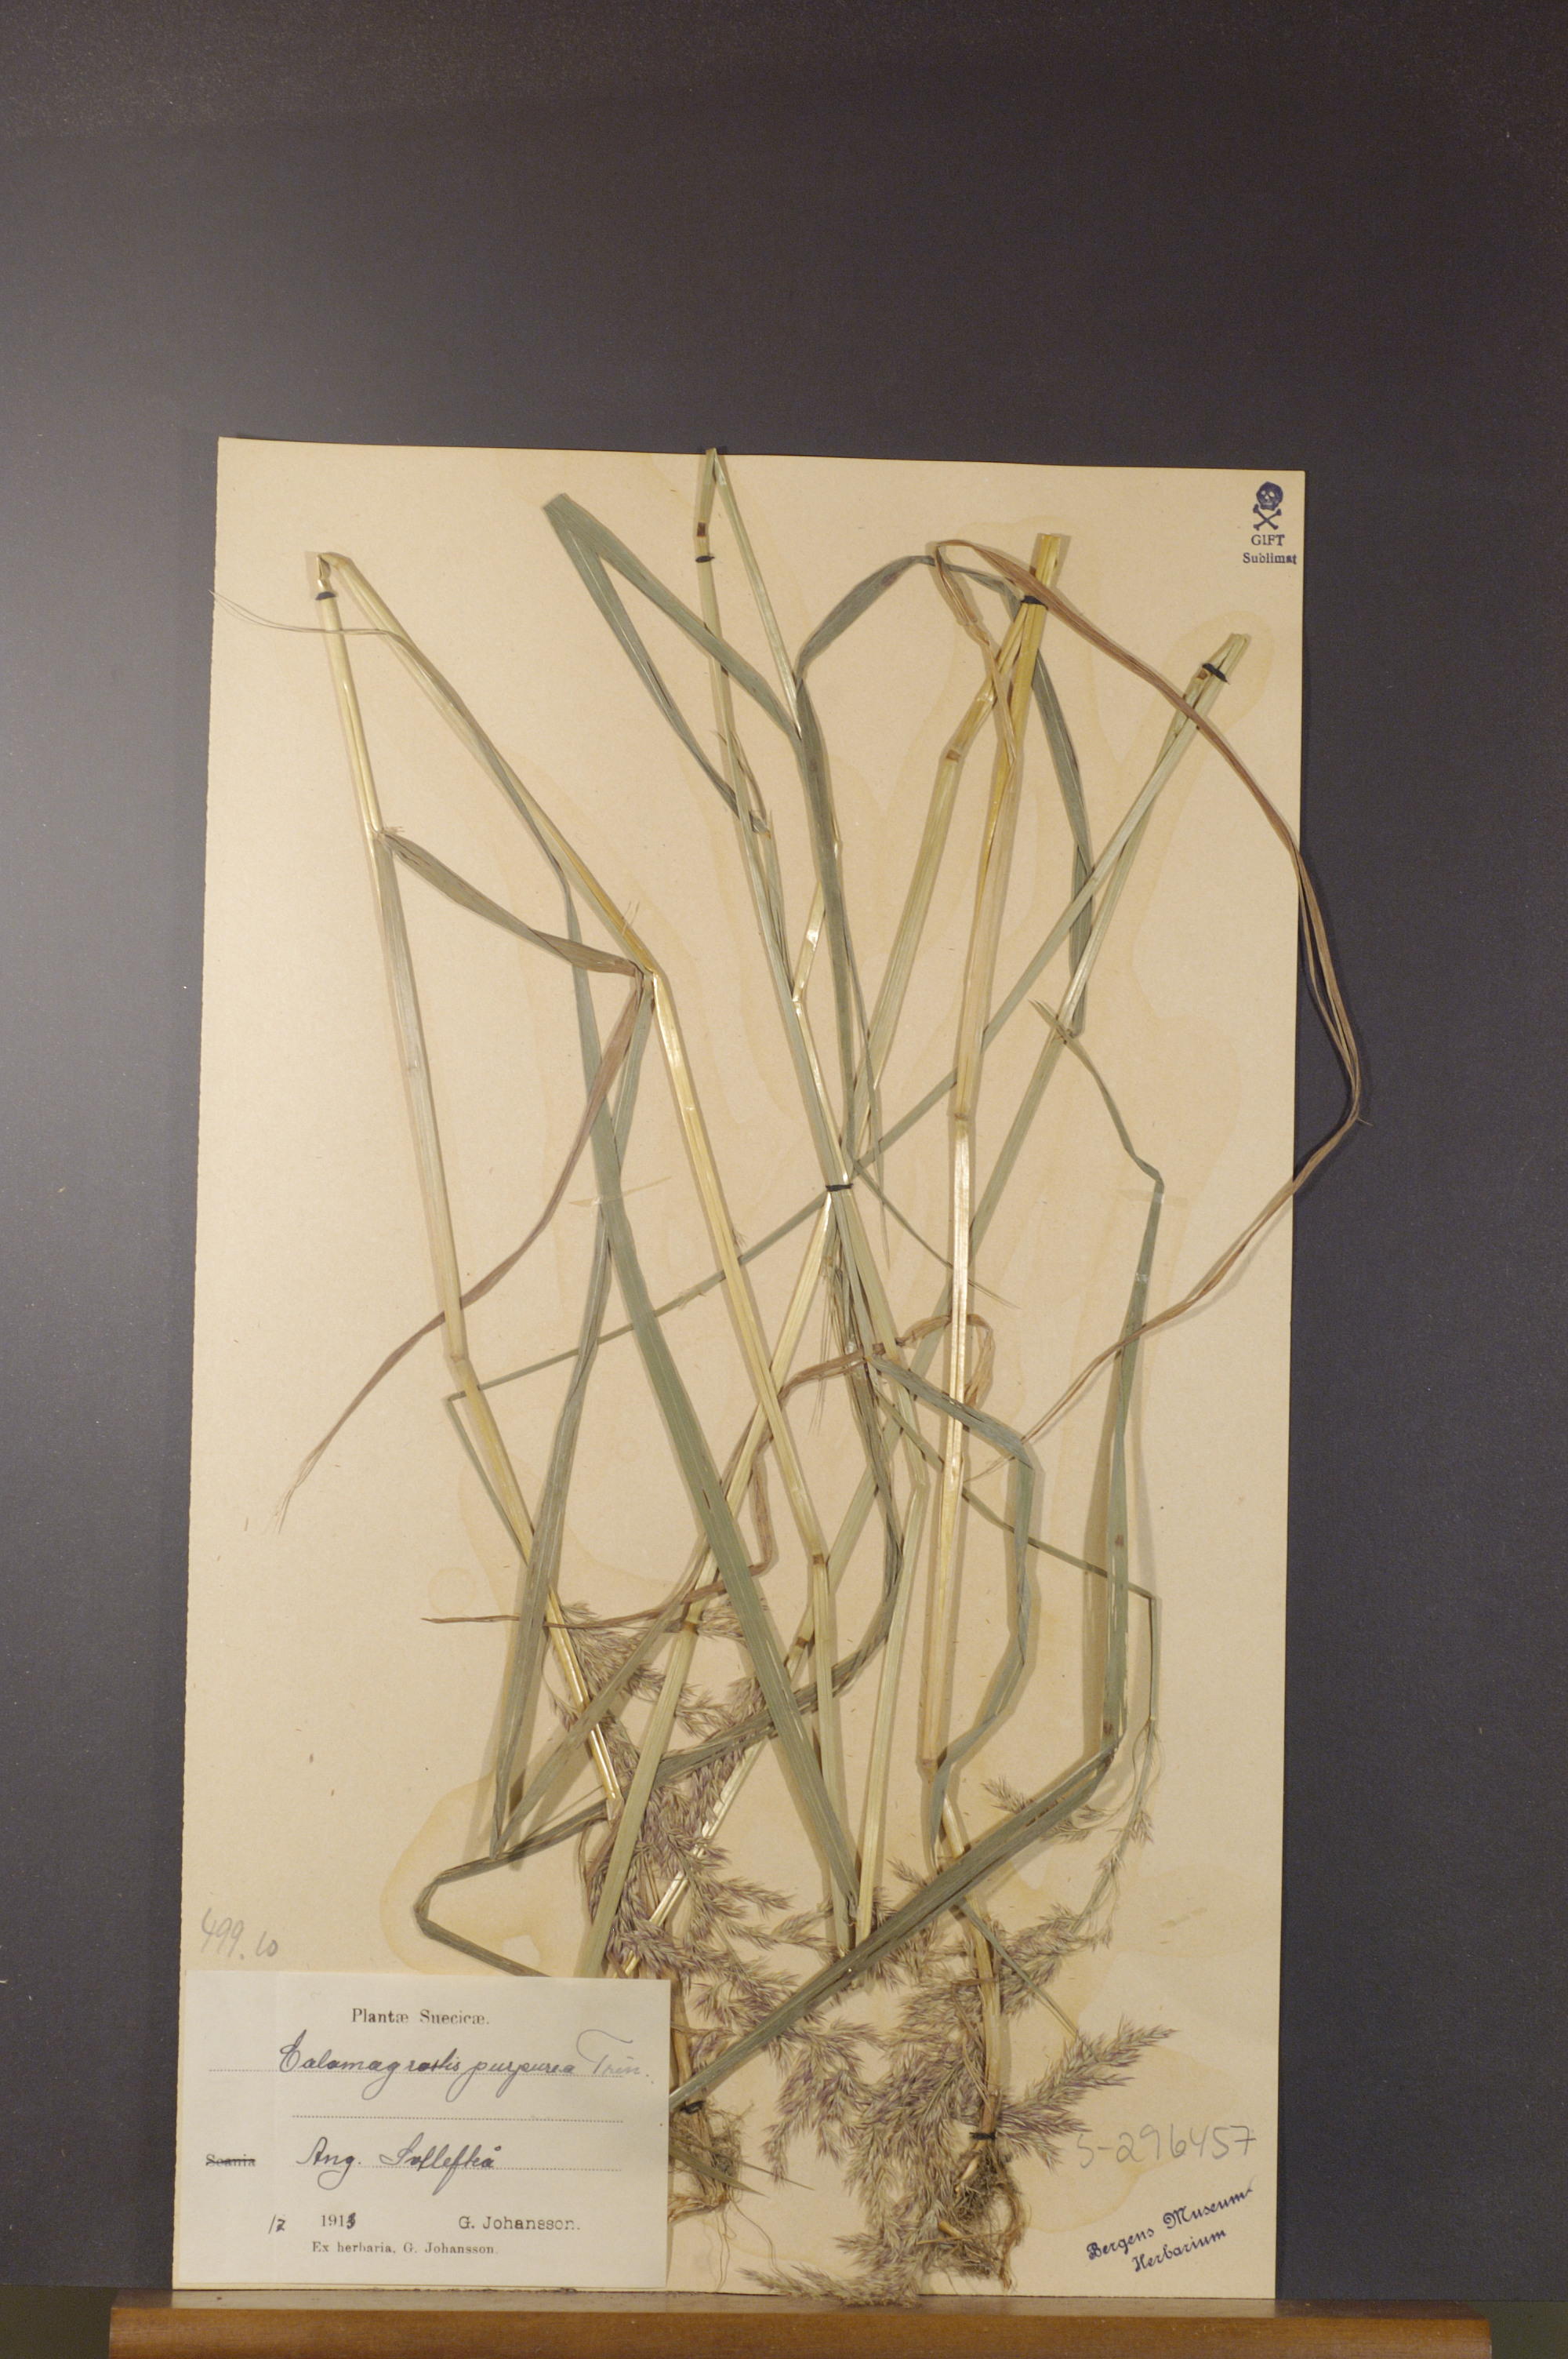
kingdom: Plantae
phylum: Tracheophyta
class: Liliopsida
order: Poales
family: Poaceae
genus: Calamagrostis
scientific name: Calamagrostis purpurea
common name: Scandinavian small-reed
